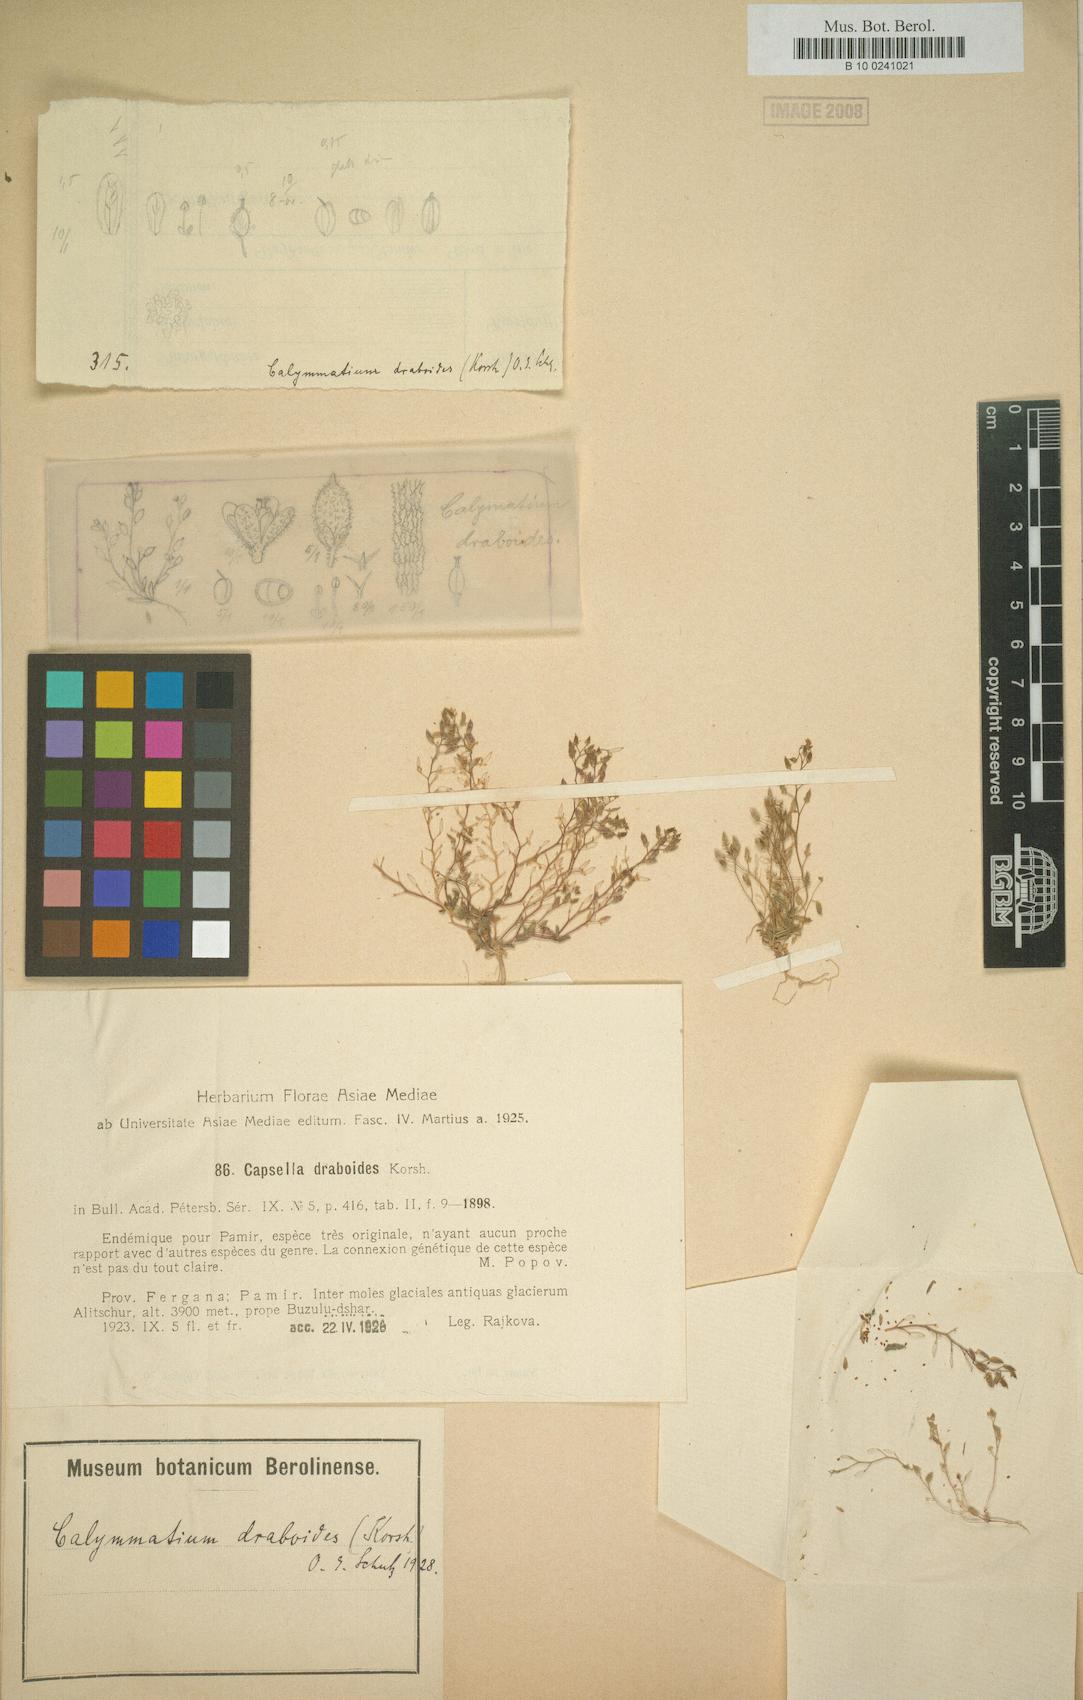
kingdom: Plantae
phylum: Tracheophyta
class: Magnoliopsida
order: Brassicales
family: Brassicaceae
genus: Calymmatium
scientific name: Calymmatium draboides
